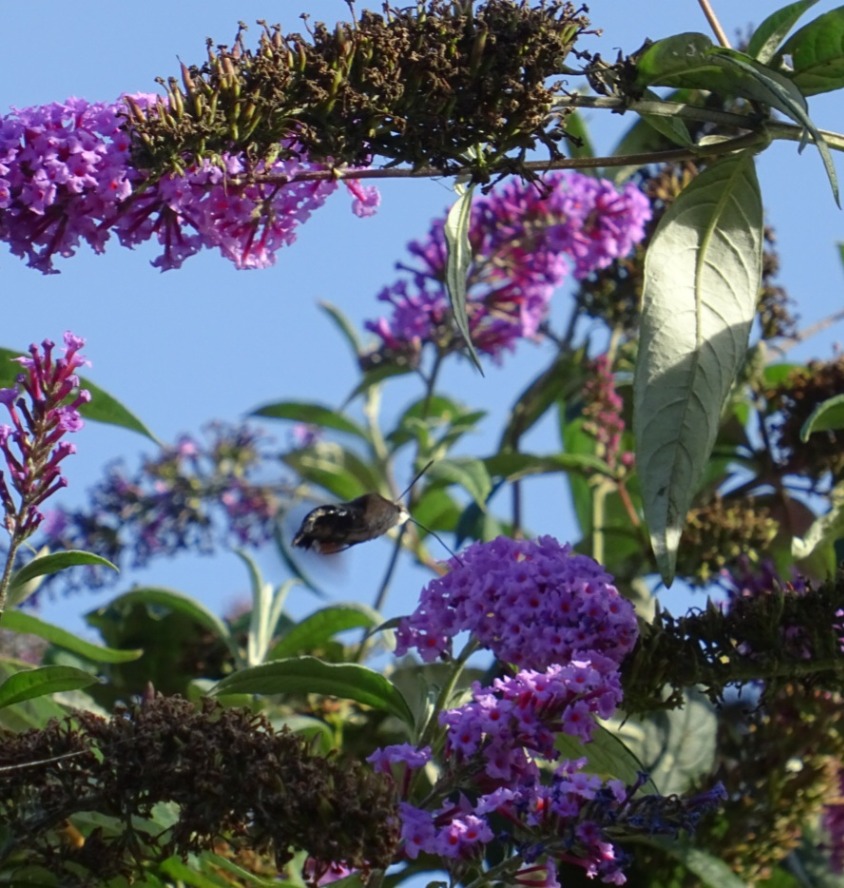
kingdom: Animalia
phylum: Arthropoda
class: Insecta
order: Lepidoptera
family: Sphingidae
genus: Macroglossum
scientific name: Macroglossum stellatarum
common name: Duehale
